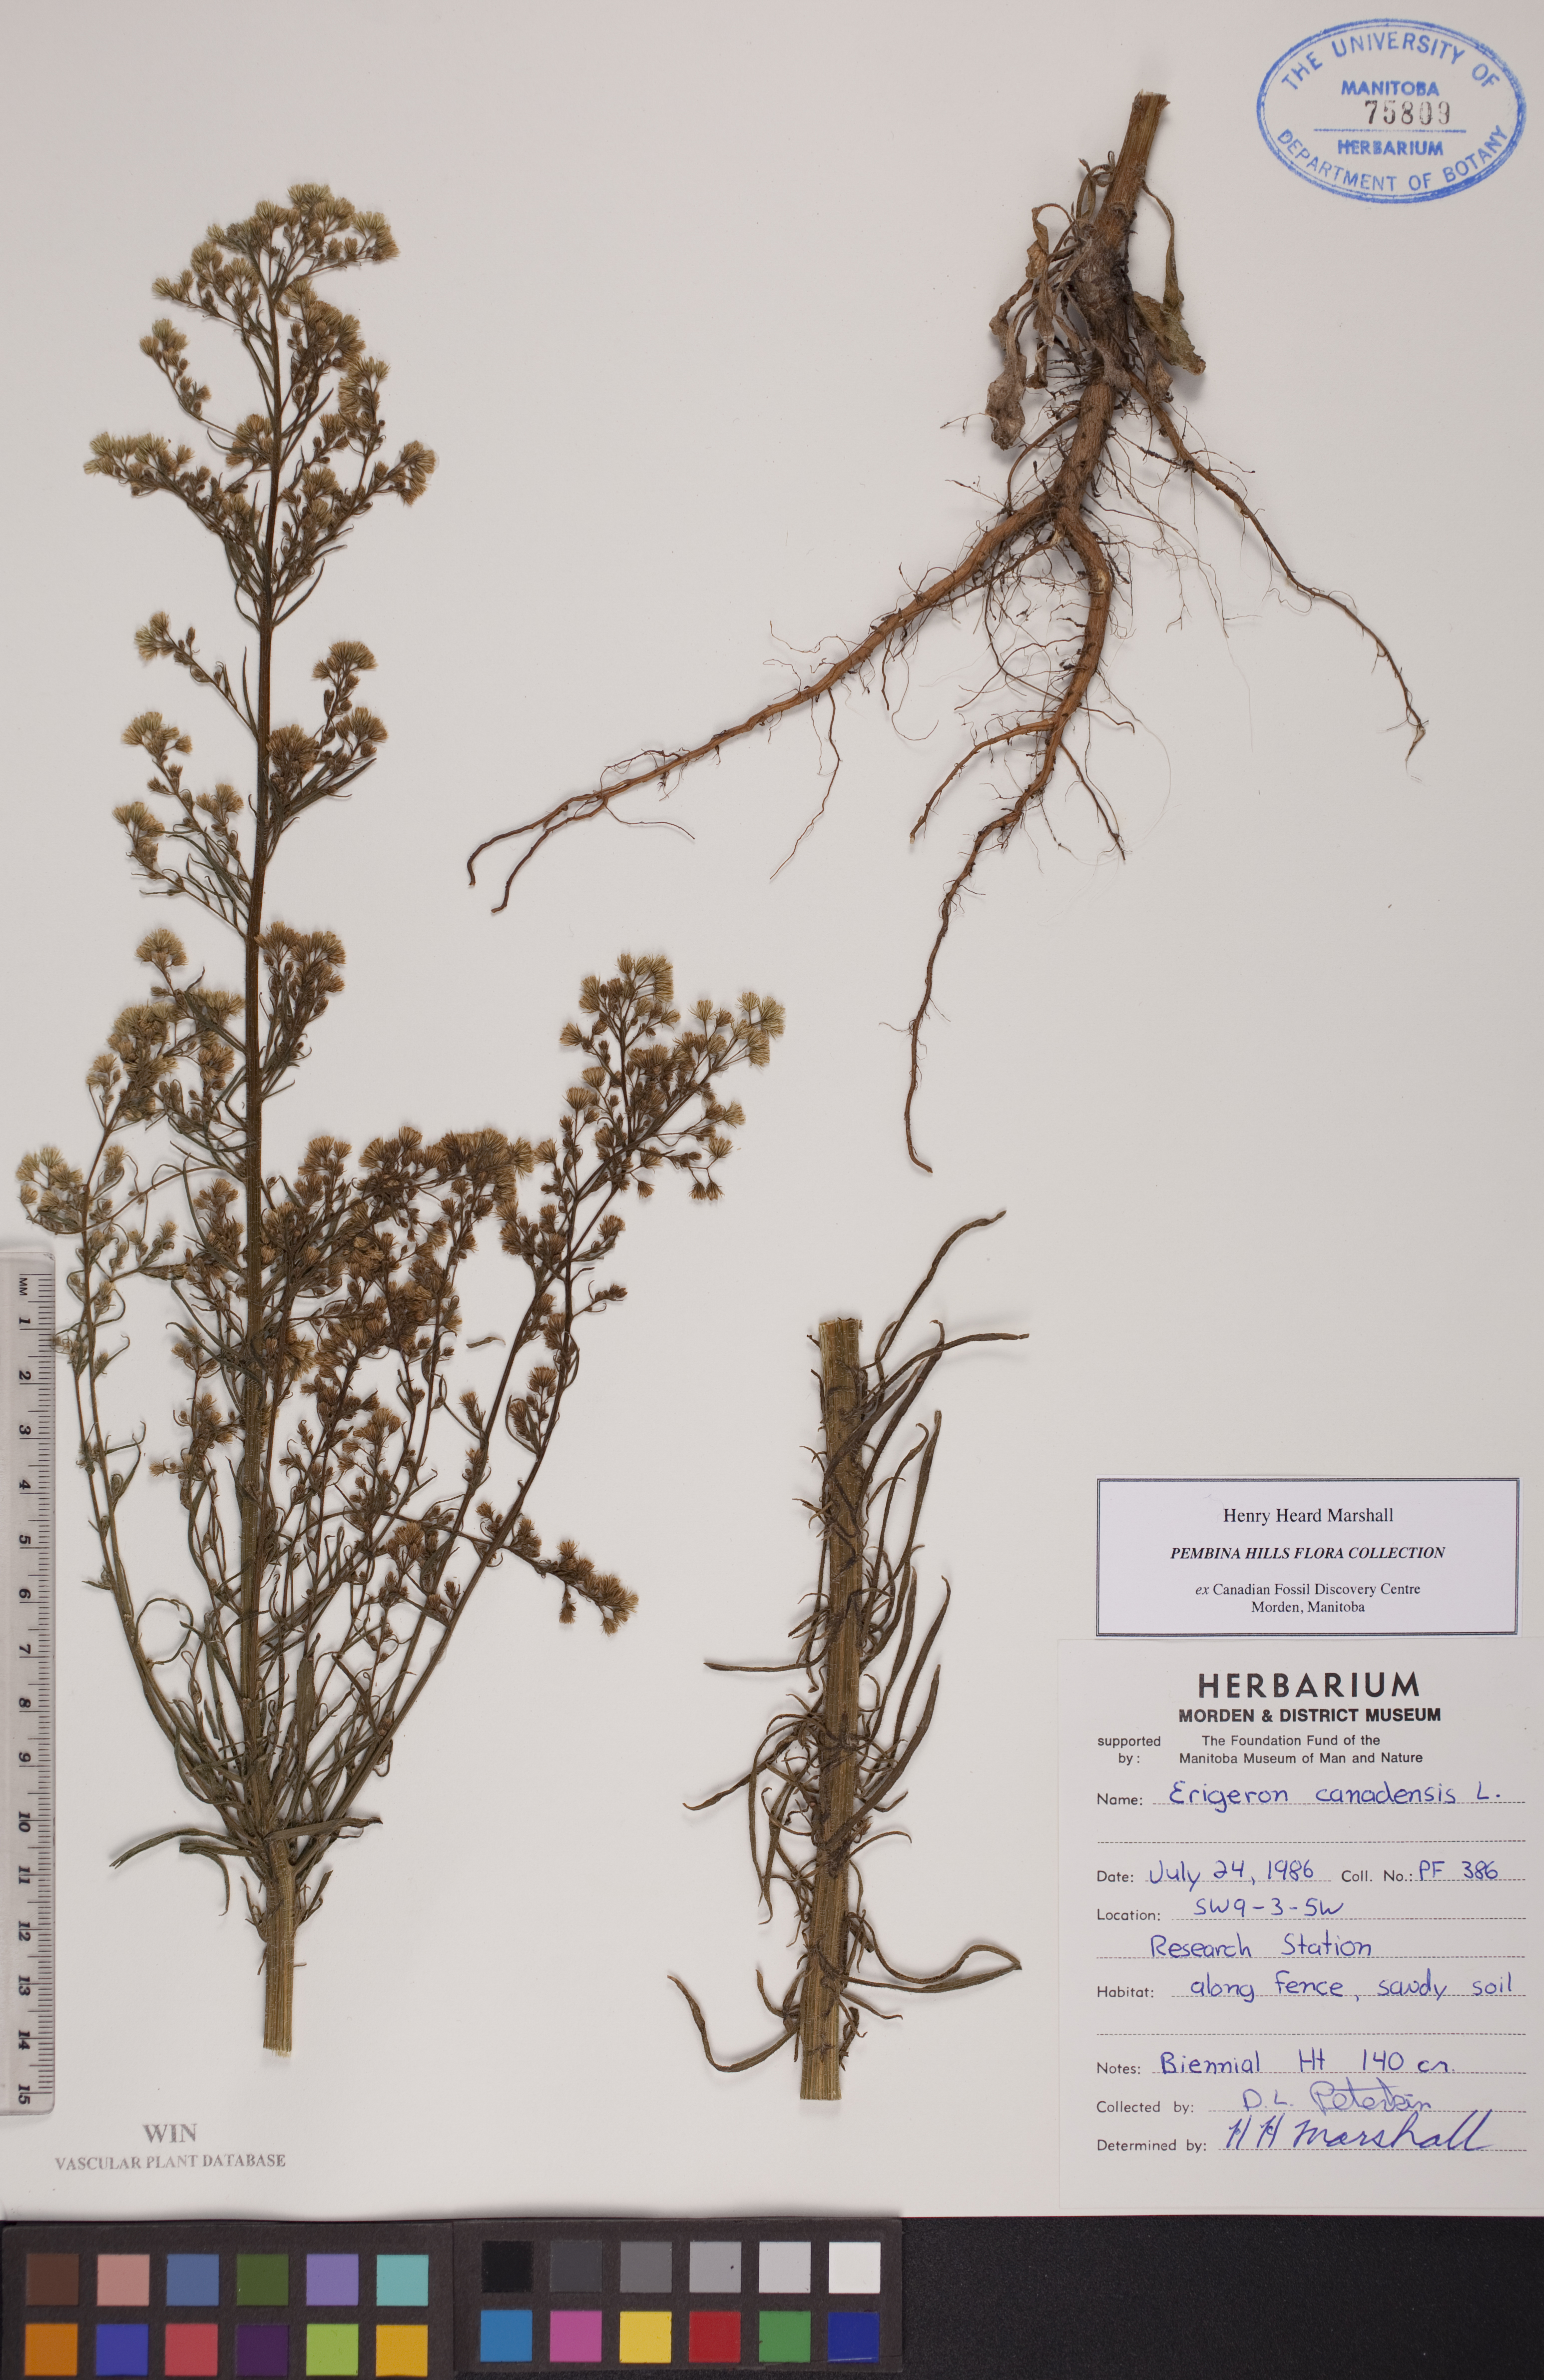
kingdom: Plantae
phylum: Tracheophyta
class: Magnoliopsida
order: Asterales
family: Asteraceae
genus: Erigeron
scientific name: Erigeron canadensis
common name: Canadian fleabane
